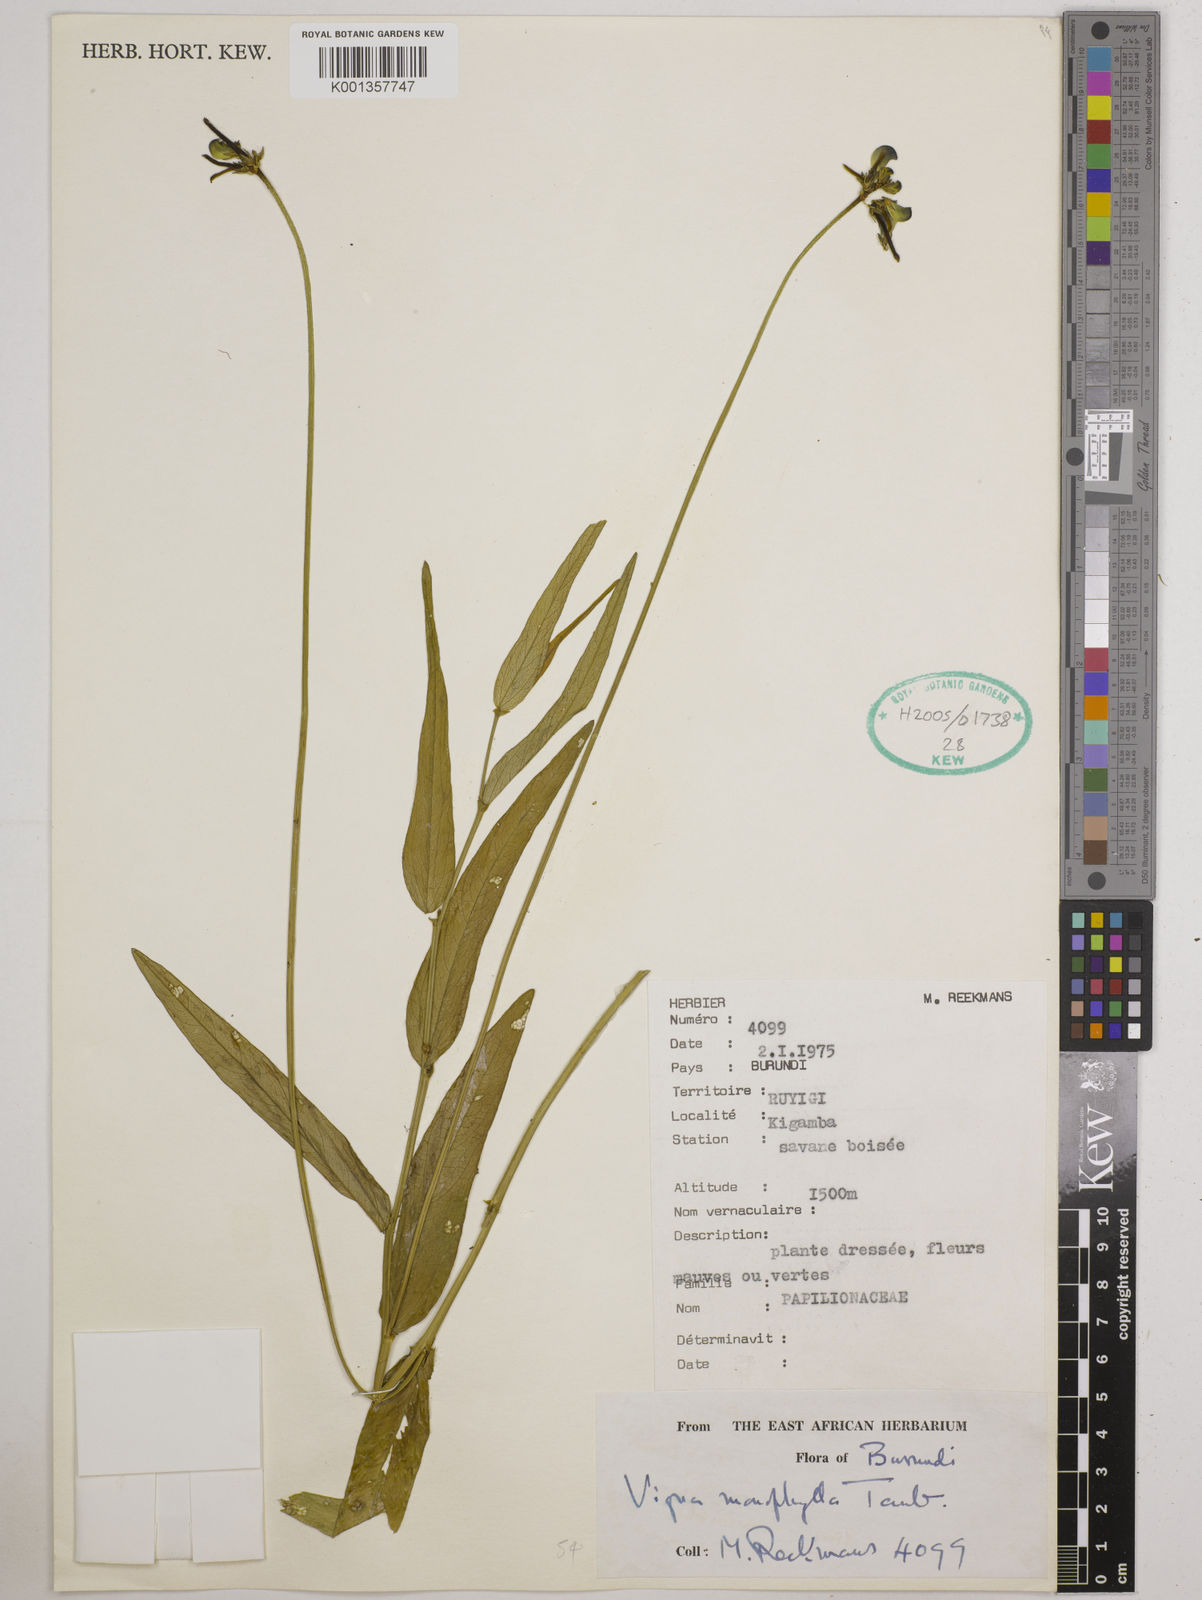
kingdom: Plantae
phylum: Tracheophyta
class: Magnoliopsida
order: Fabales
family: Fabaceae
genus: Vigna
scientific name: Vigna monophylla
